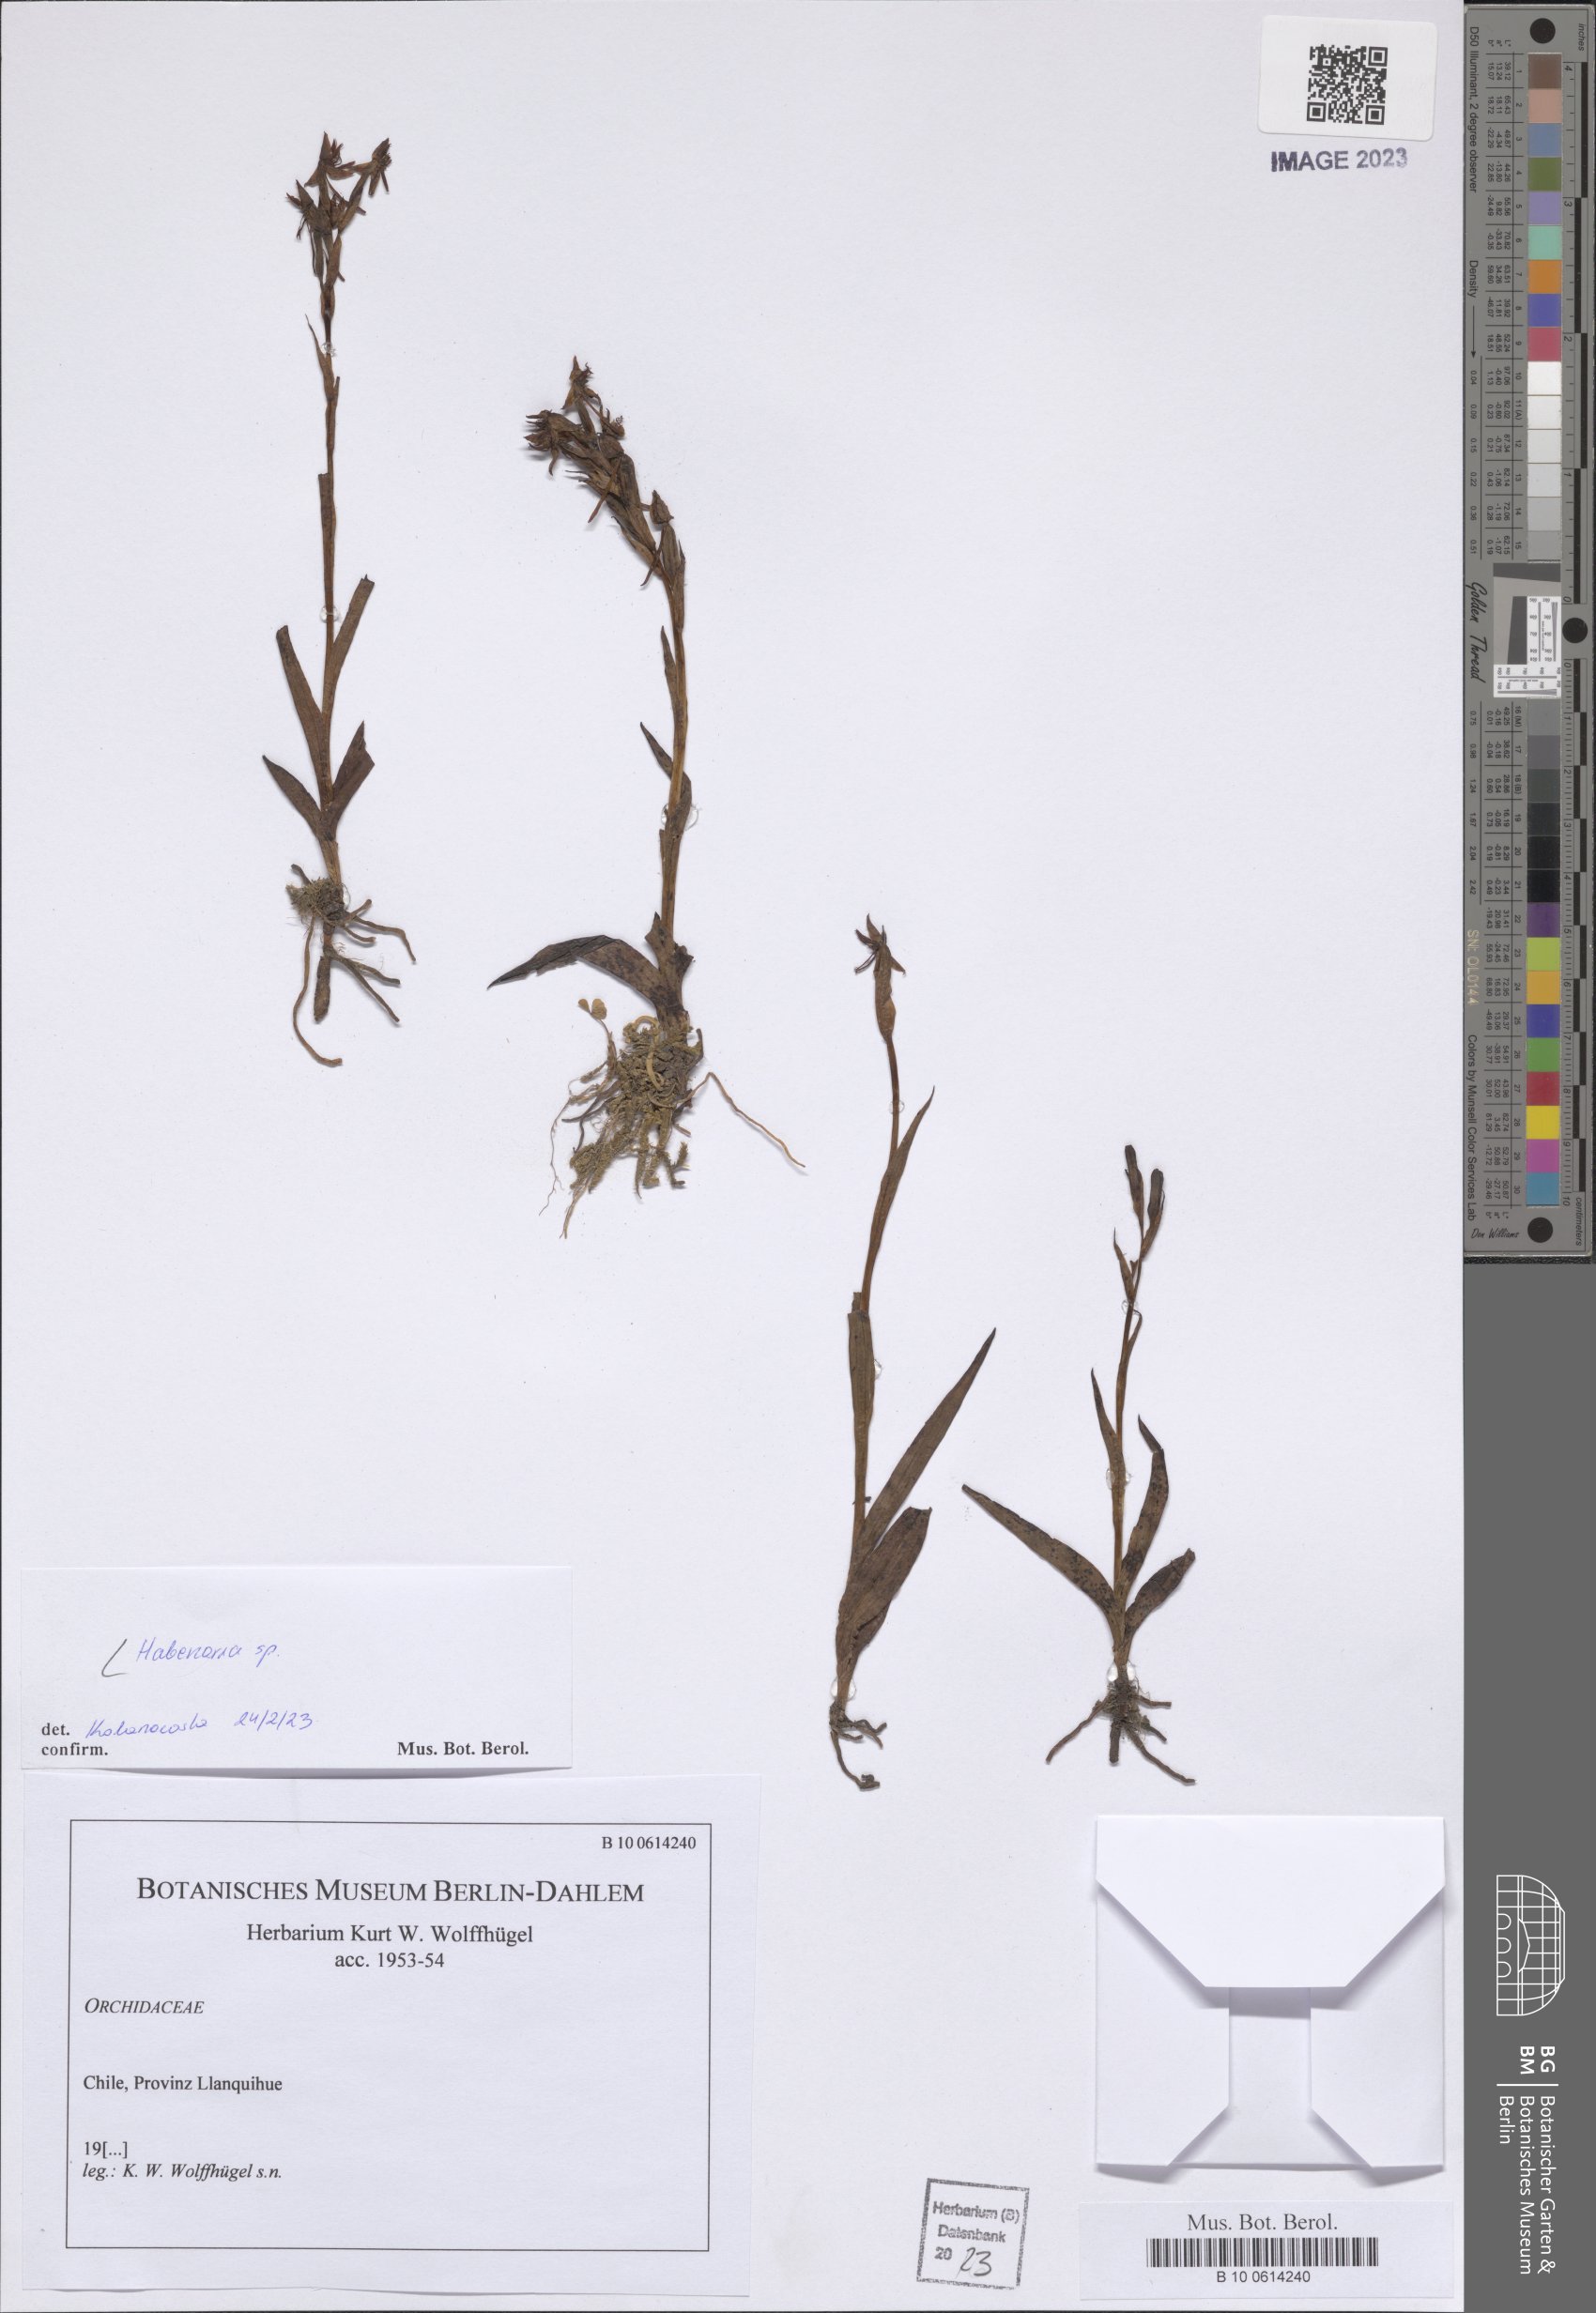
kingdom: Plantae
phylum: Tracheophyta
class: Liliopsida
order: Asparagales
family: Orchidaceae
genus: Habenaria
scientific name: Habenaria
